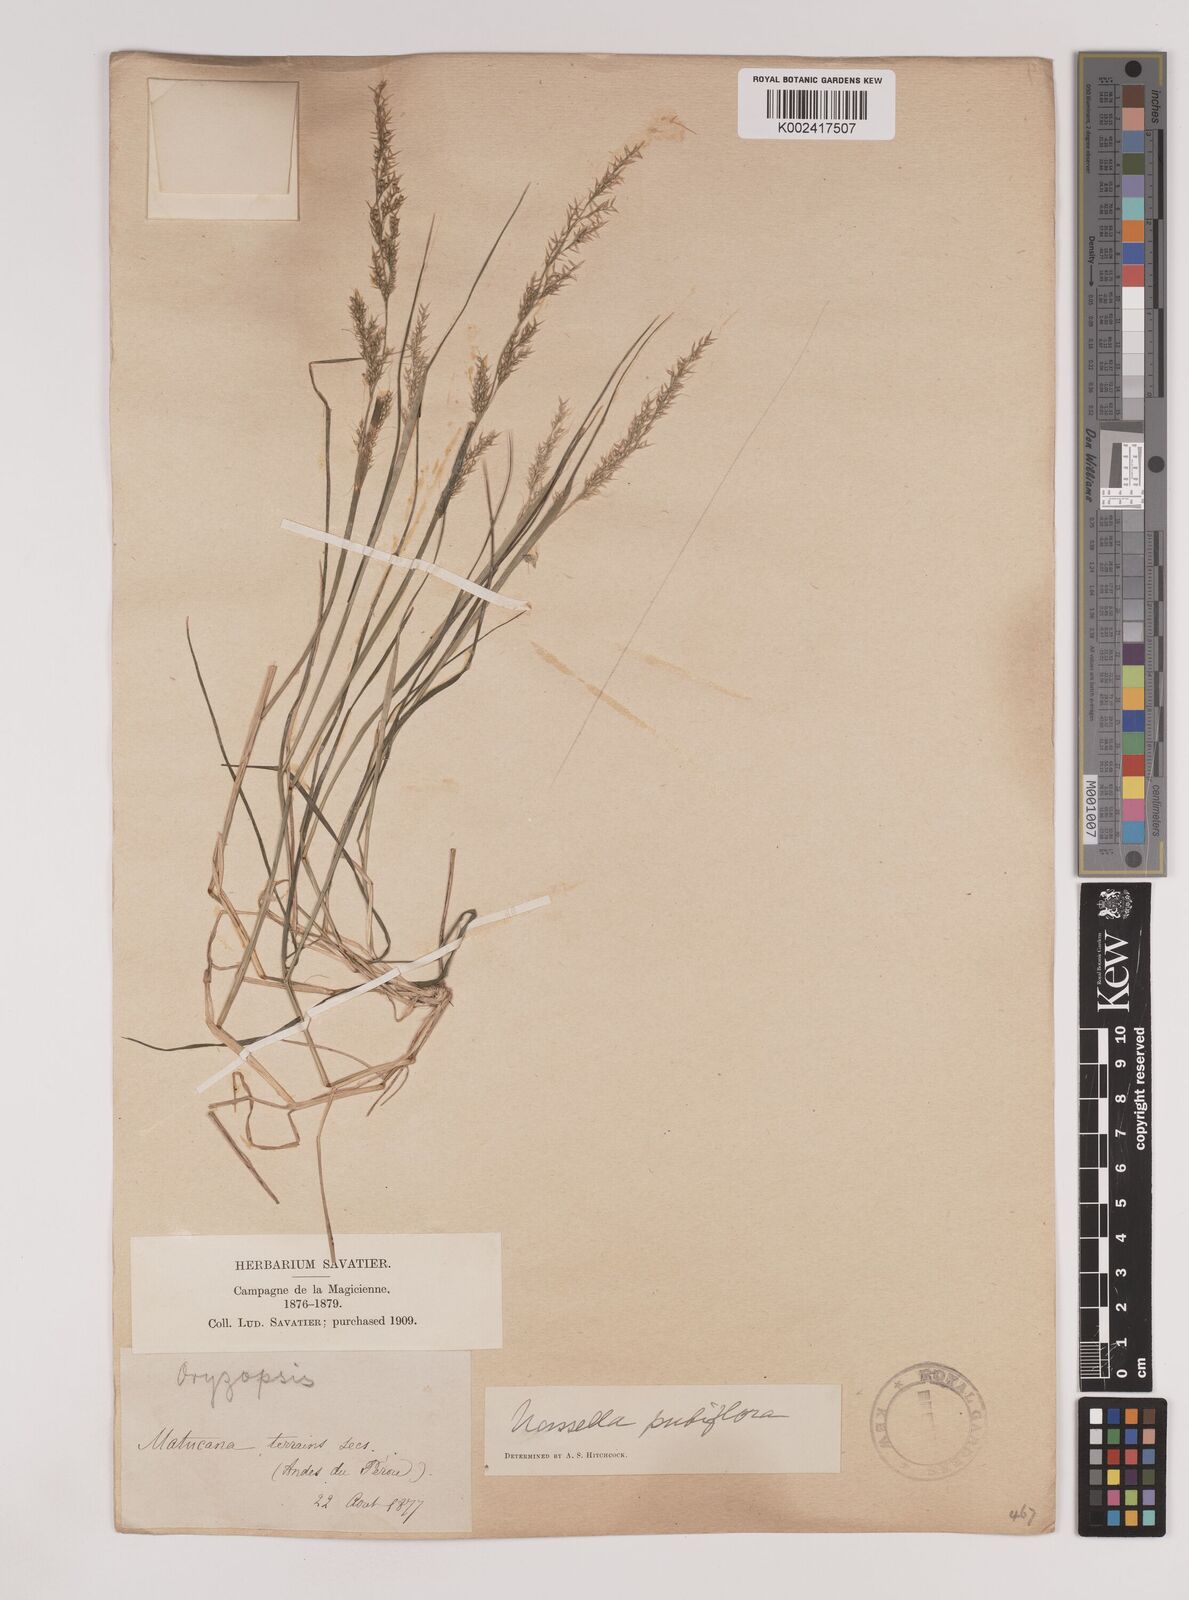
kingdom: Plantae
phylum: Tracheophyta
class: Liliopsida
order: Poales
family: Poaceae
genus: Nassella
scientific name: Nassella pubiflora
